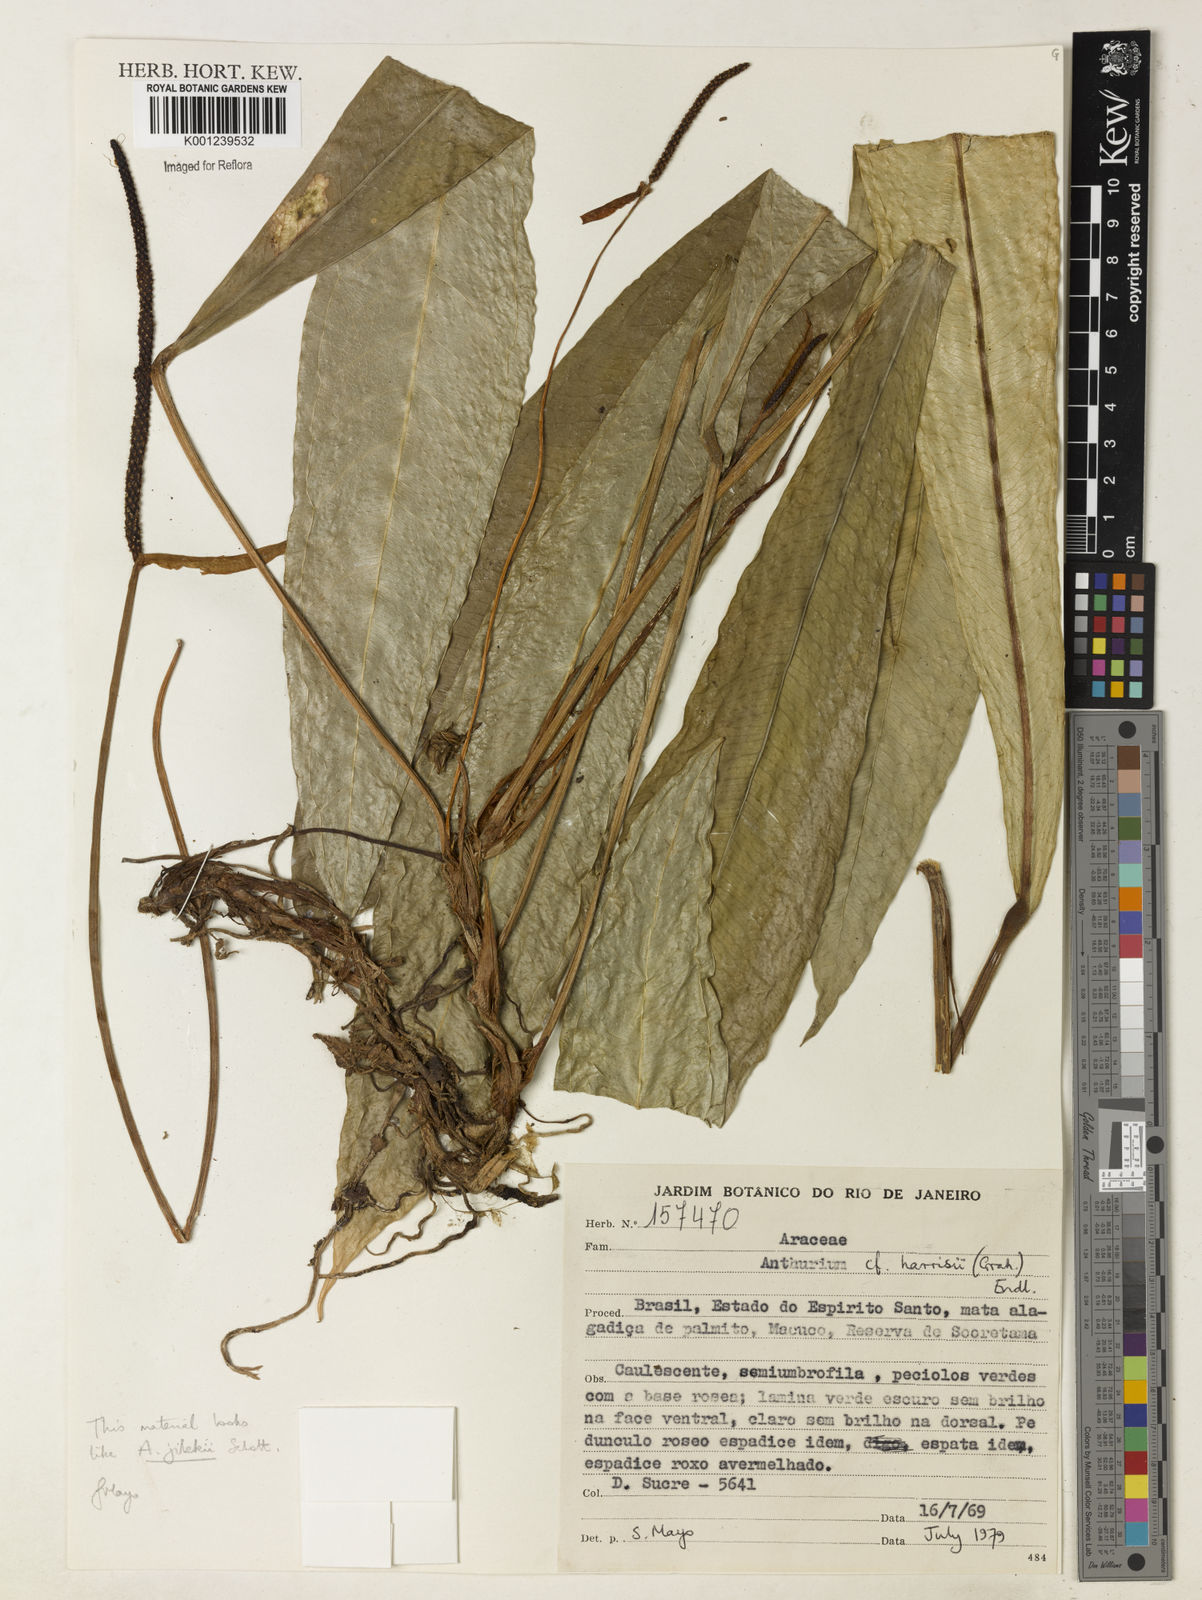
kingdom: Plantae
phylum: Tracheophyta
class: Liliopsida
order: Alismatales
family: Araceae
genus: Anthurium
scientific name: Anthurium jilekii
